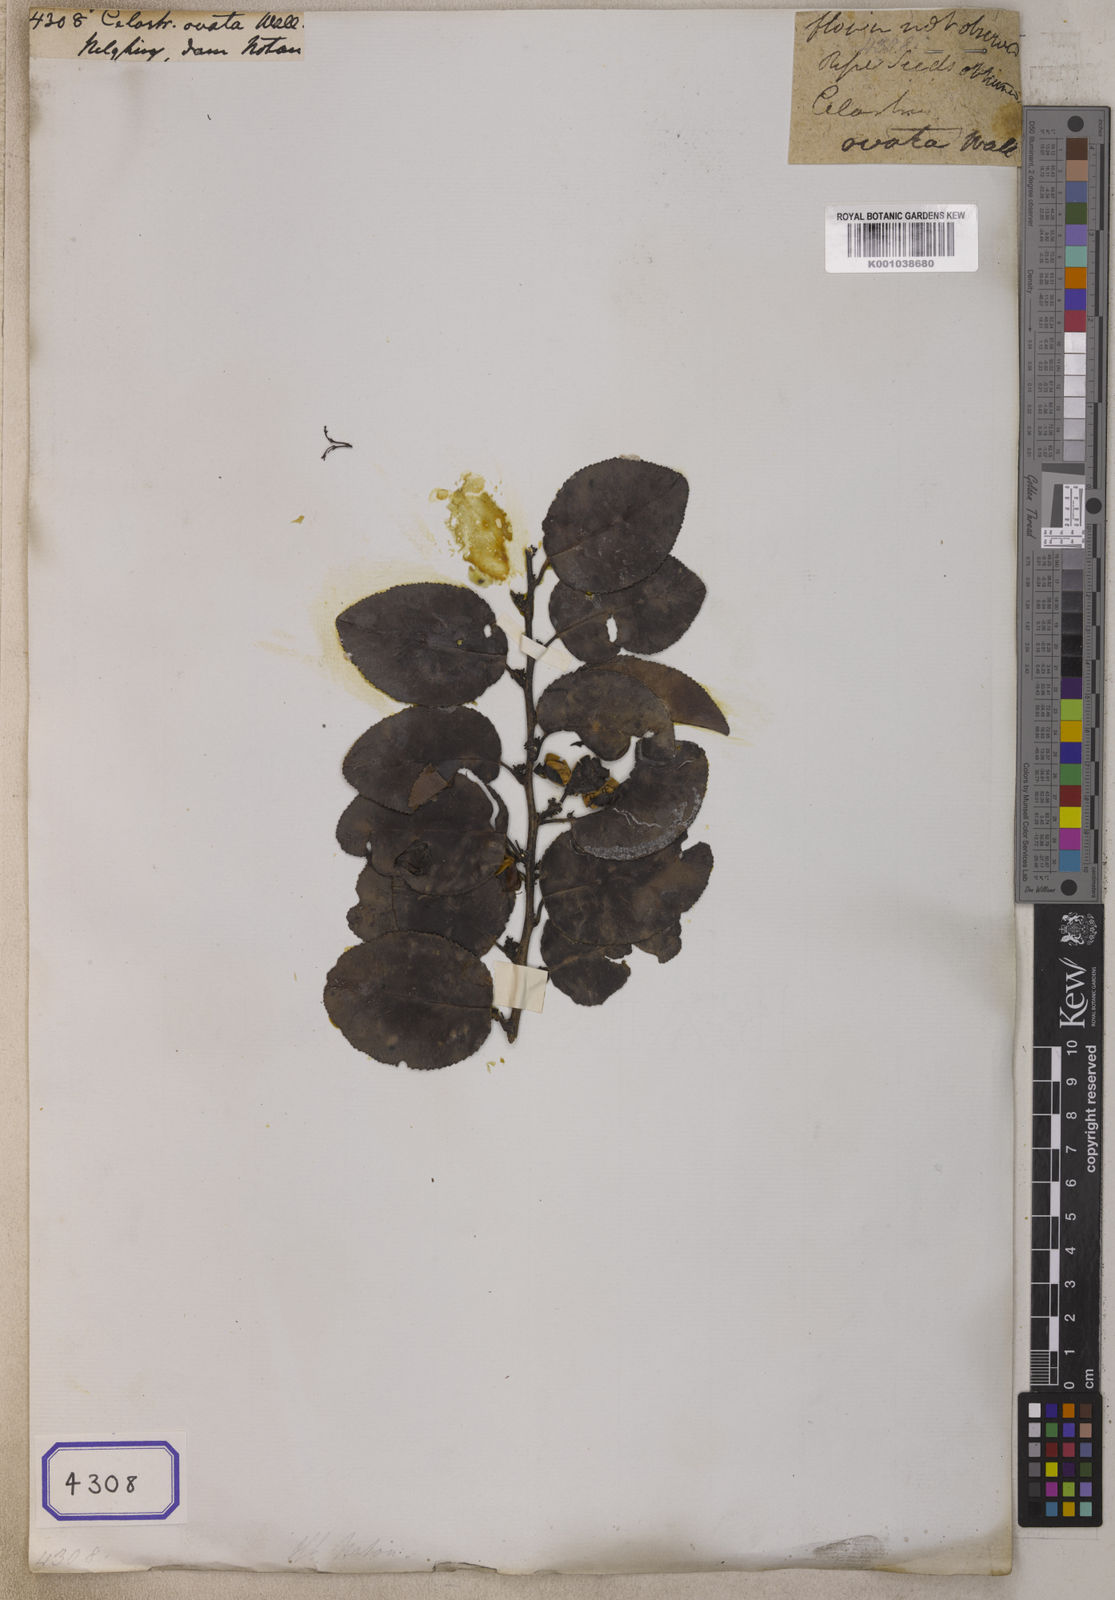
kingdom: Plantae
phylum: Tracheophyta
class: Magnoliopsida
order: Celastrales
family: Celastraceae
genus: Celastrus
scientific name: Celastrus
